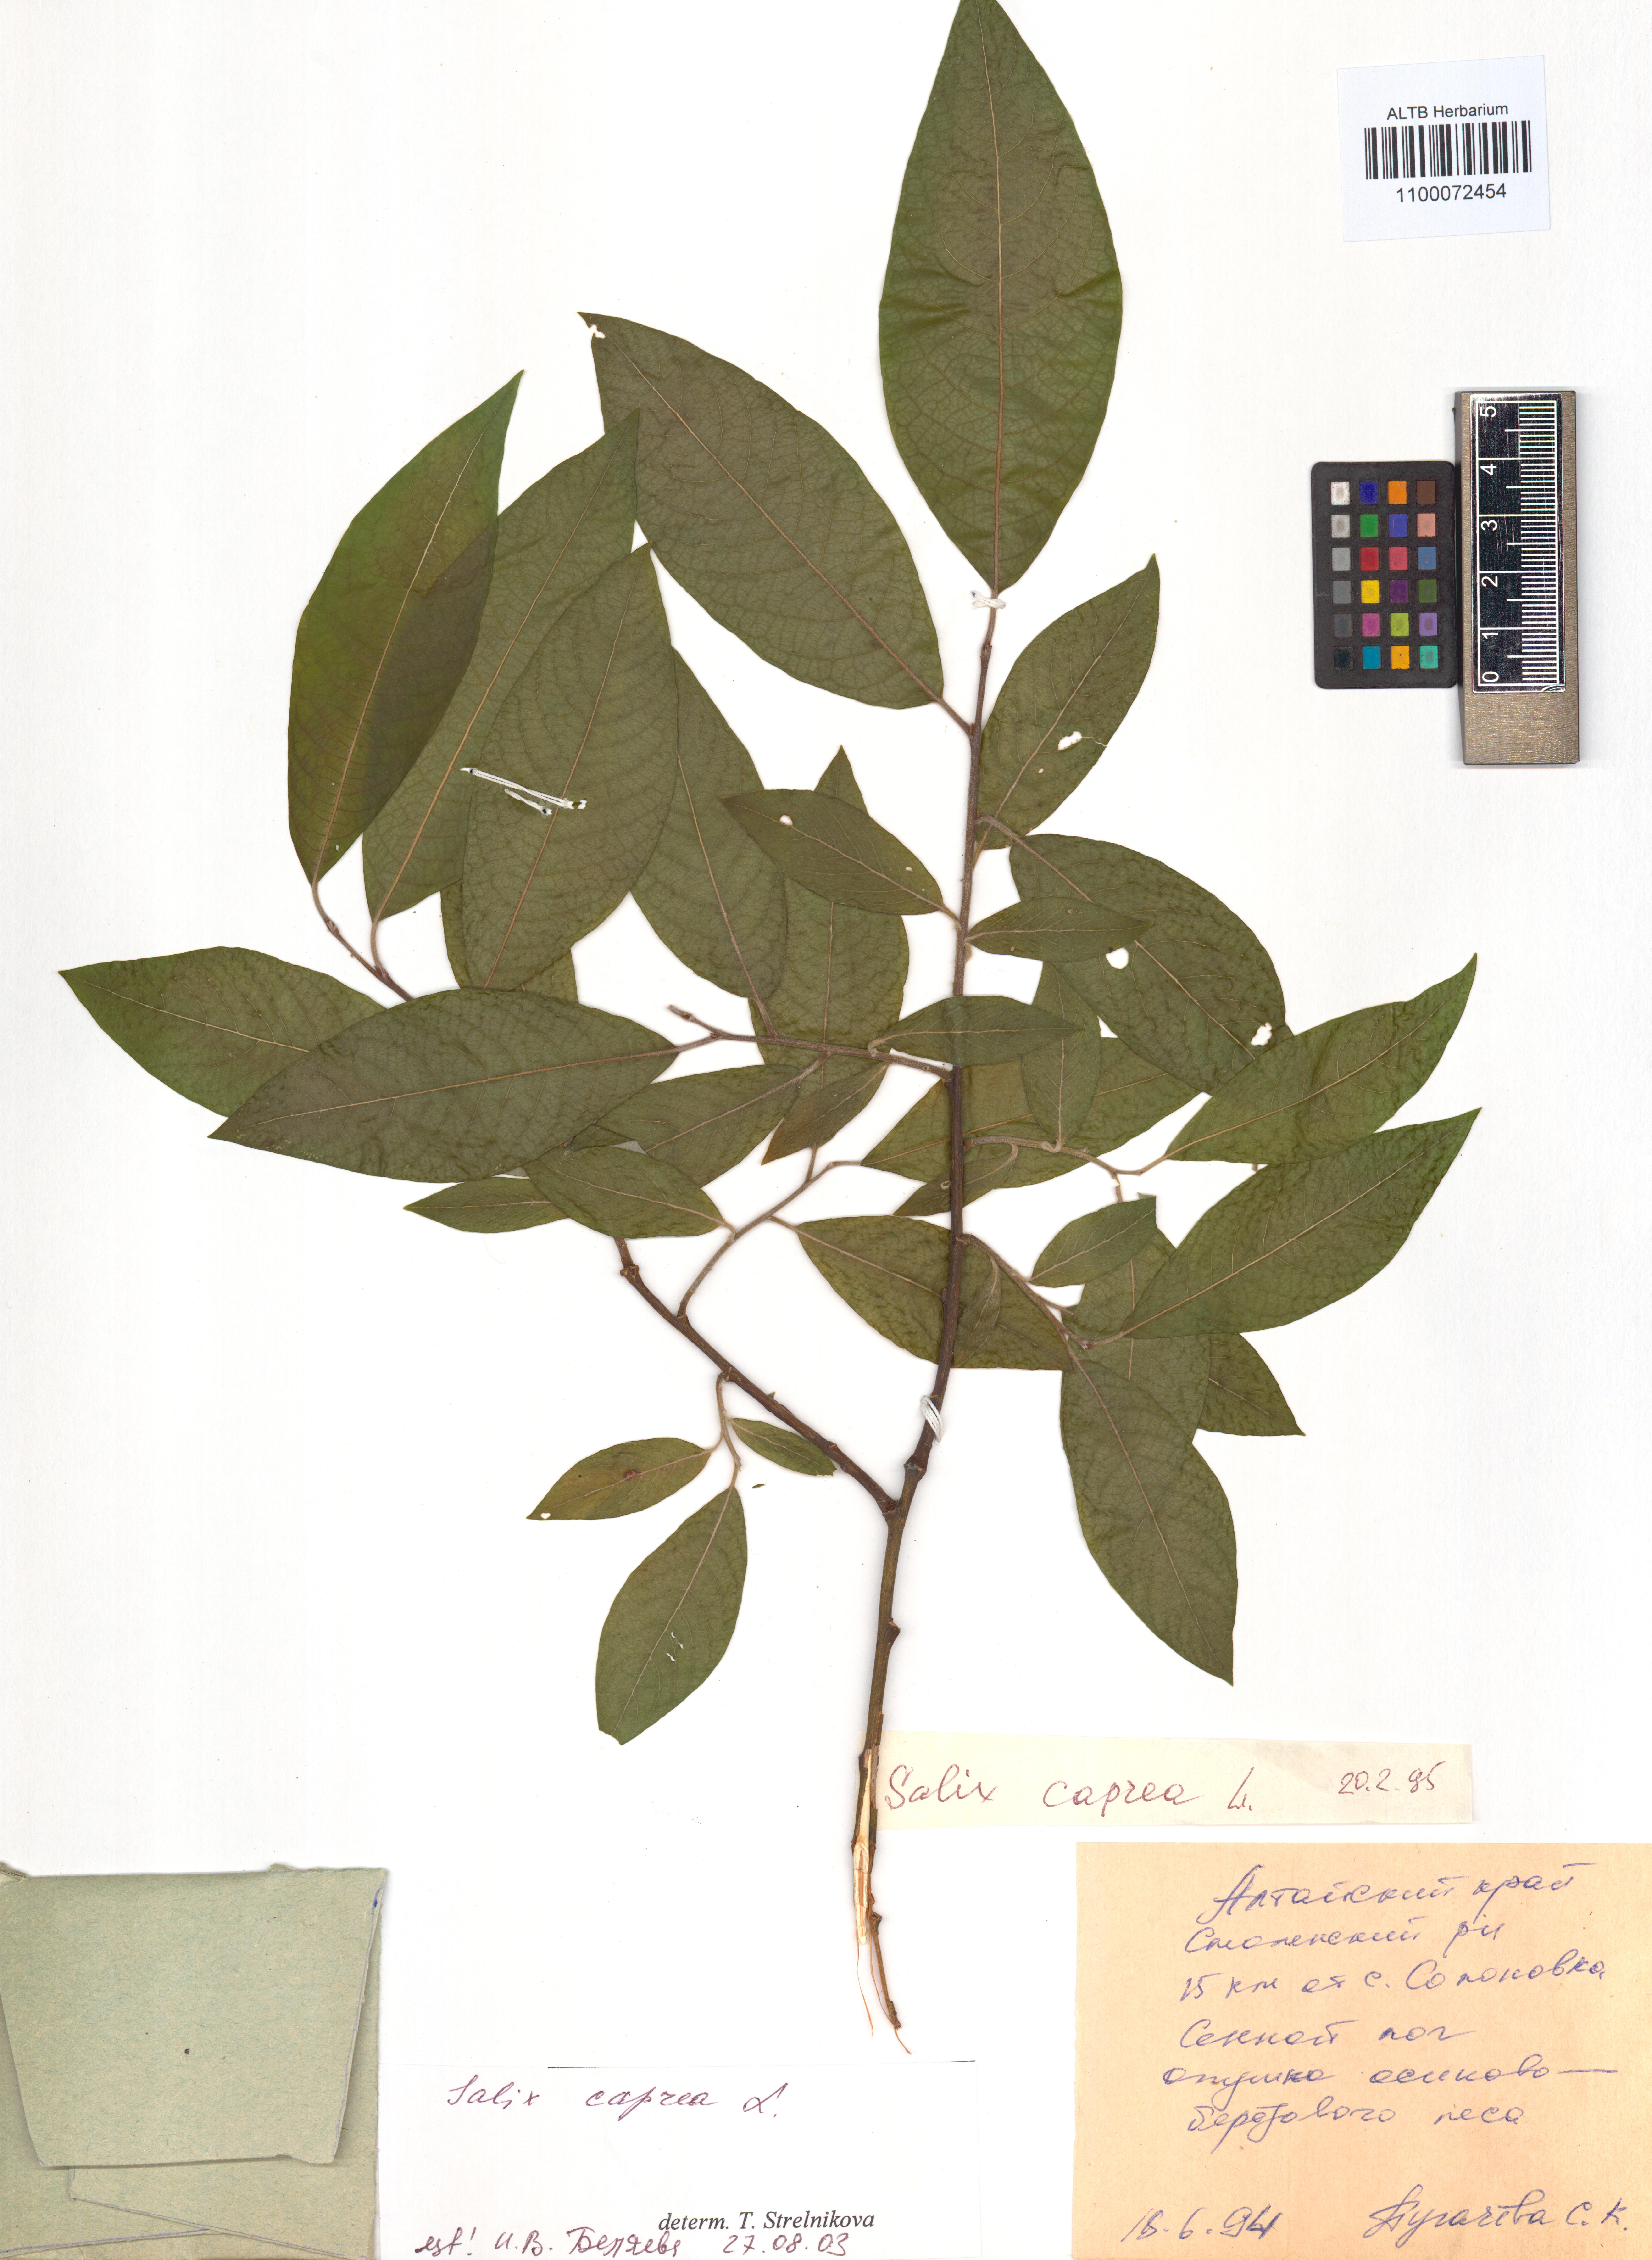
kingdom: Plantae
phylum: Tracheophyta
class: Magnoliopsida
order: Malpighiales
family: Salicaceae
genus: Salix
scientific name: Salix caprea
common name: Goat willow
